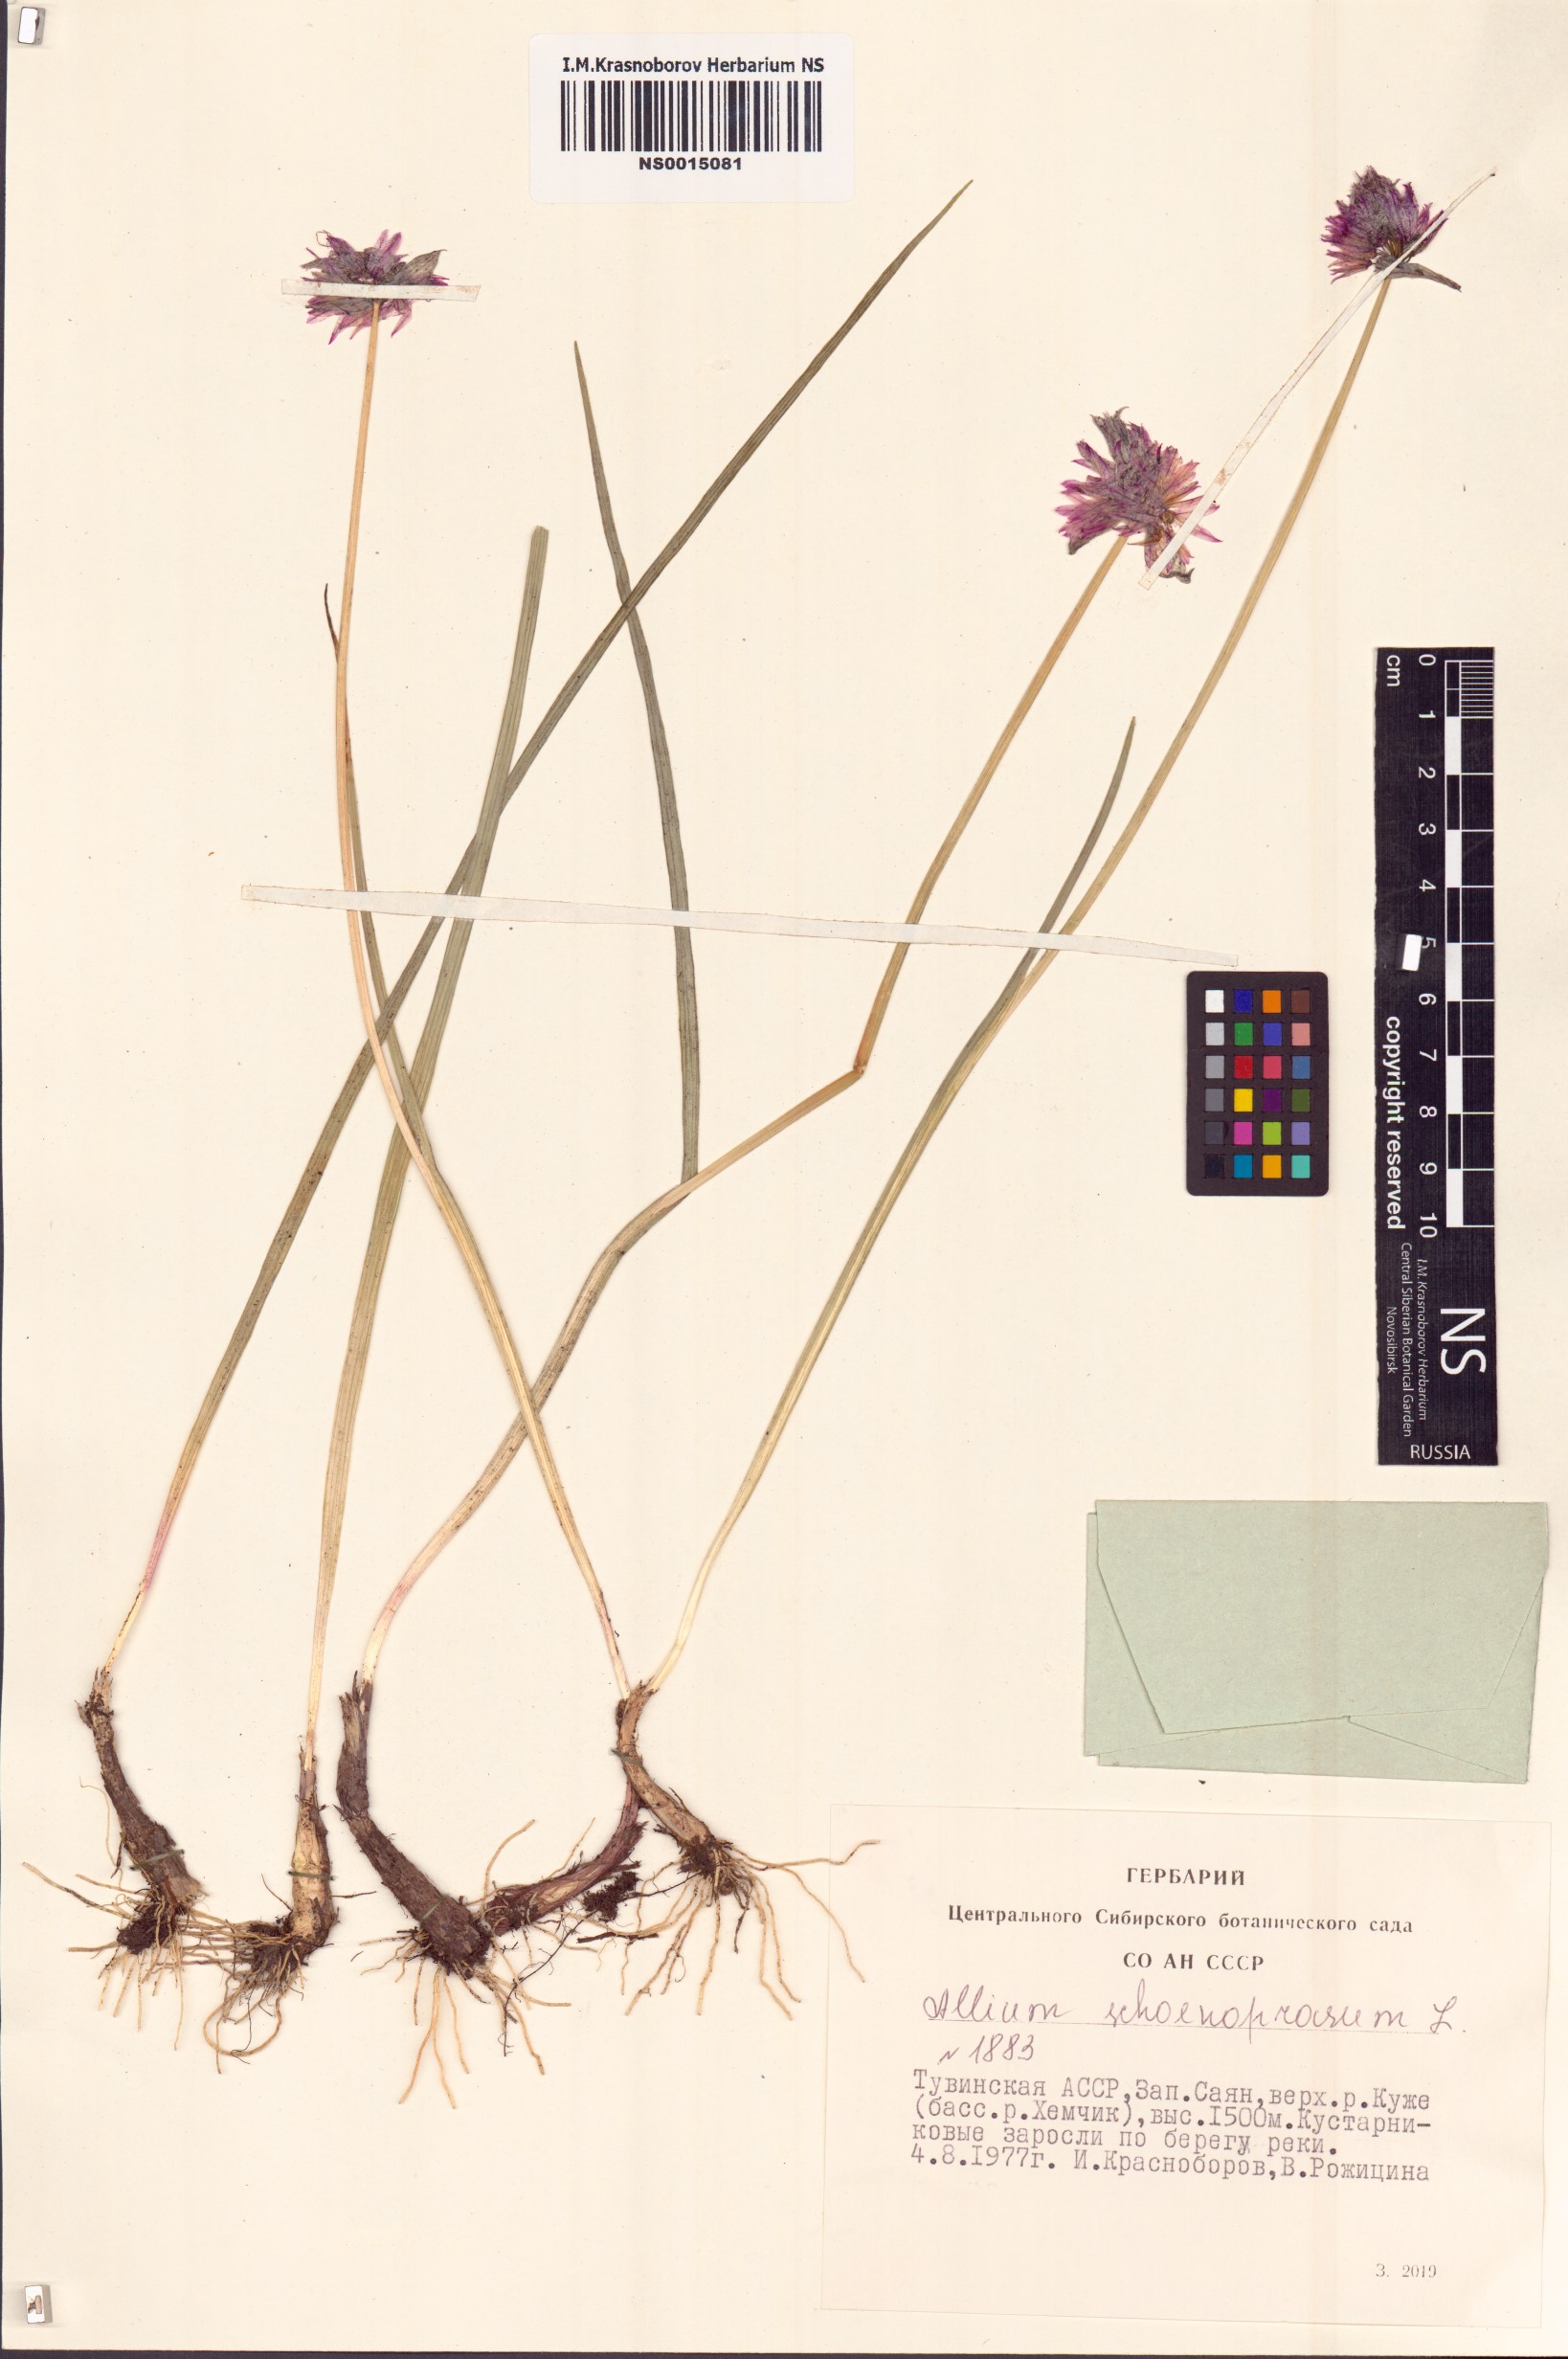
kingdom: Plantae
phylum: Tracheophyta
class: Liliopsida
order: Asparagales
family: Amaryllidaceae
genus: Allium
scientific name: Allium schoenoprasum
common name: Chives
